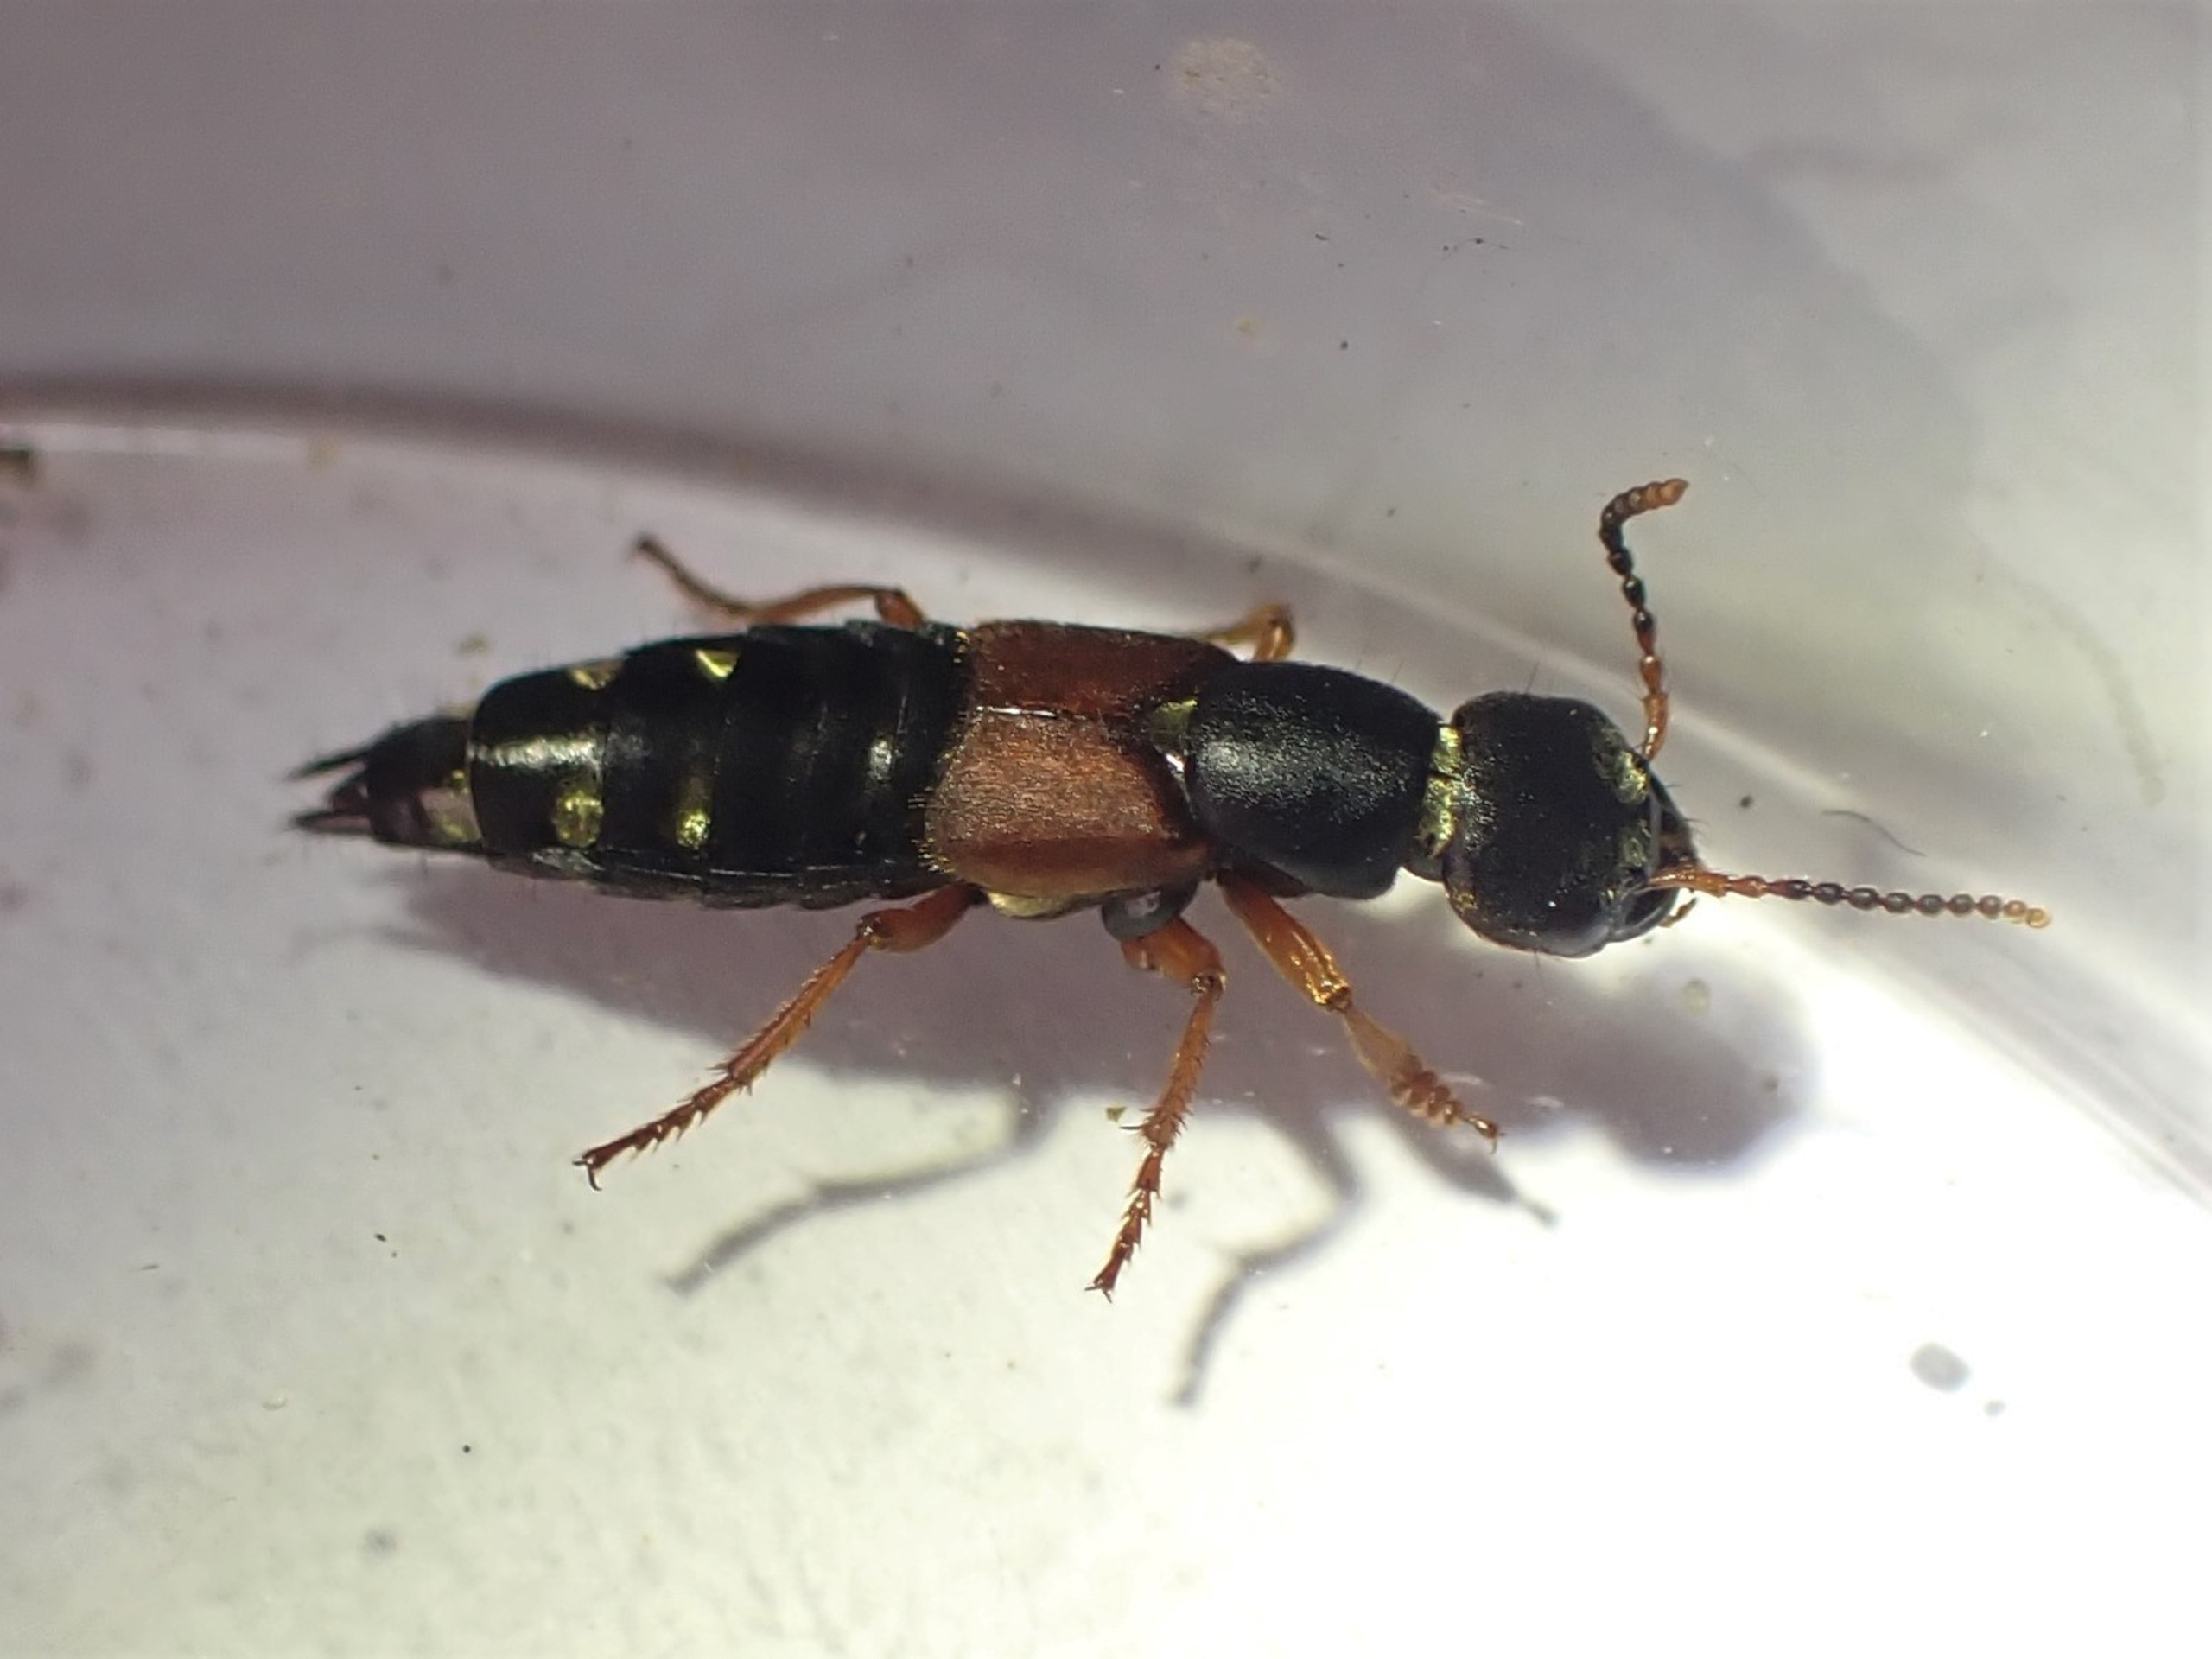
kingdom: Animalia
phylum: Arthropoda
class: Insecta
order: Coleoptera
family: Staphylinidae
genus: Staphylinus
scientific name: Staphylinus erythropterus
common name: Rødvinget rovbille
